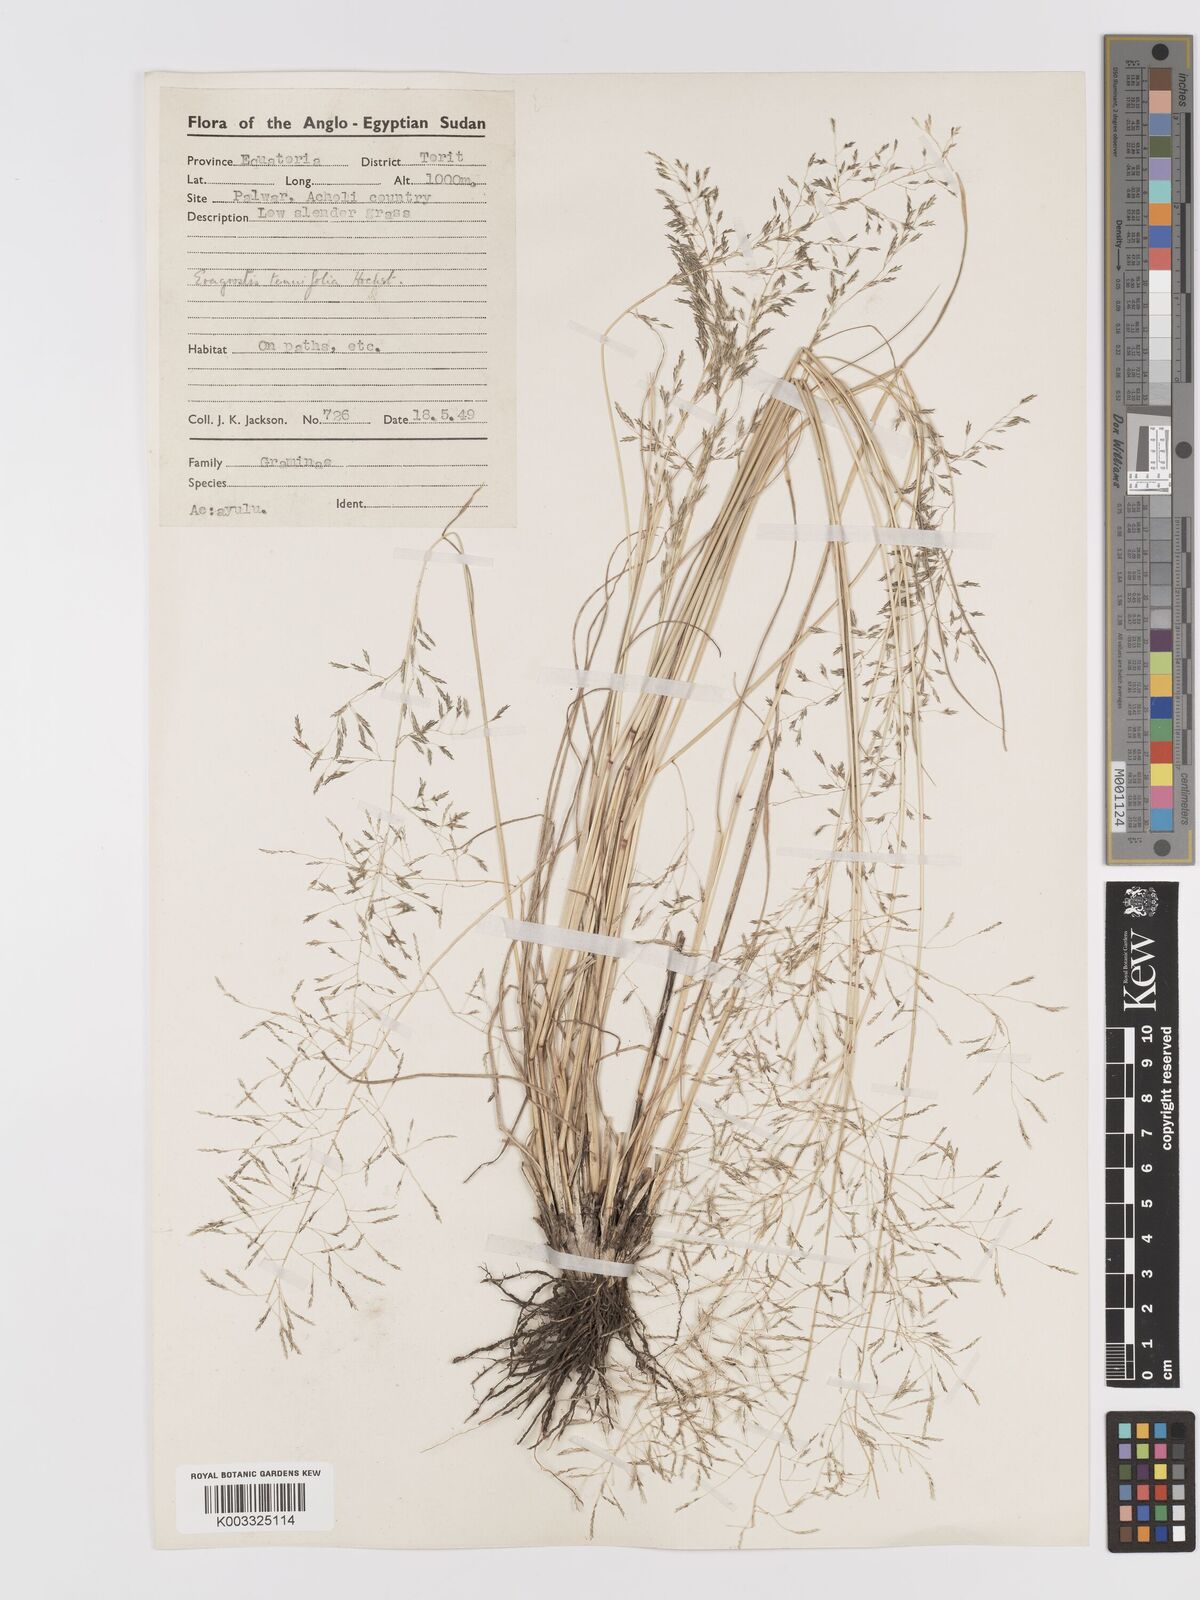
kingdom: Plantae
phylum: Tracheophyta
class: Liliopsida
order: Poales
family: Poaceae
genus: Eragrostis
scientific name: Eragrostis tenuifolia
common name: Elastic grass
